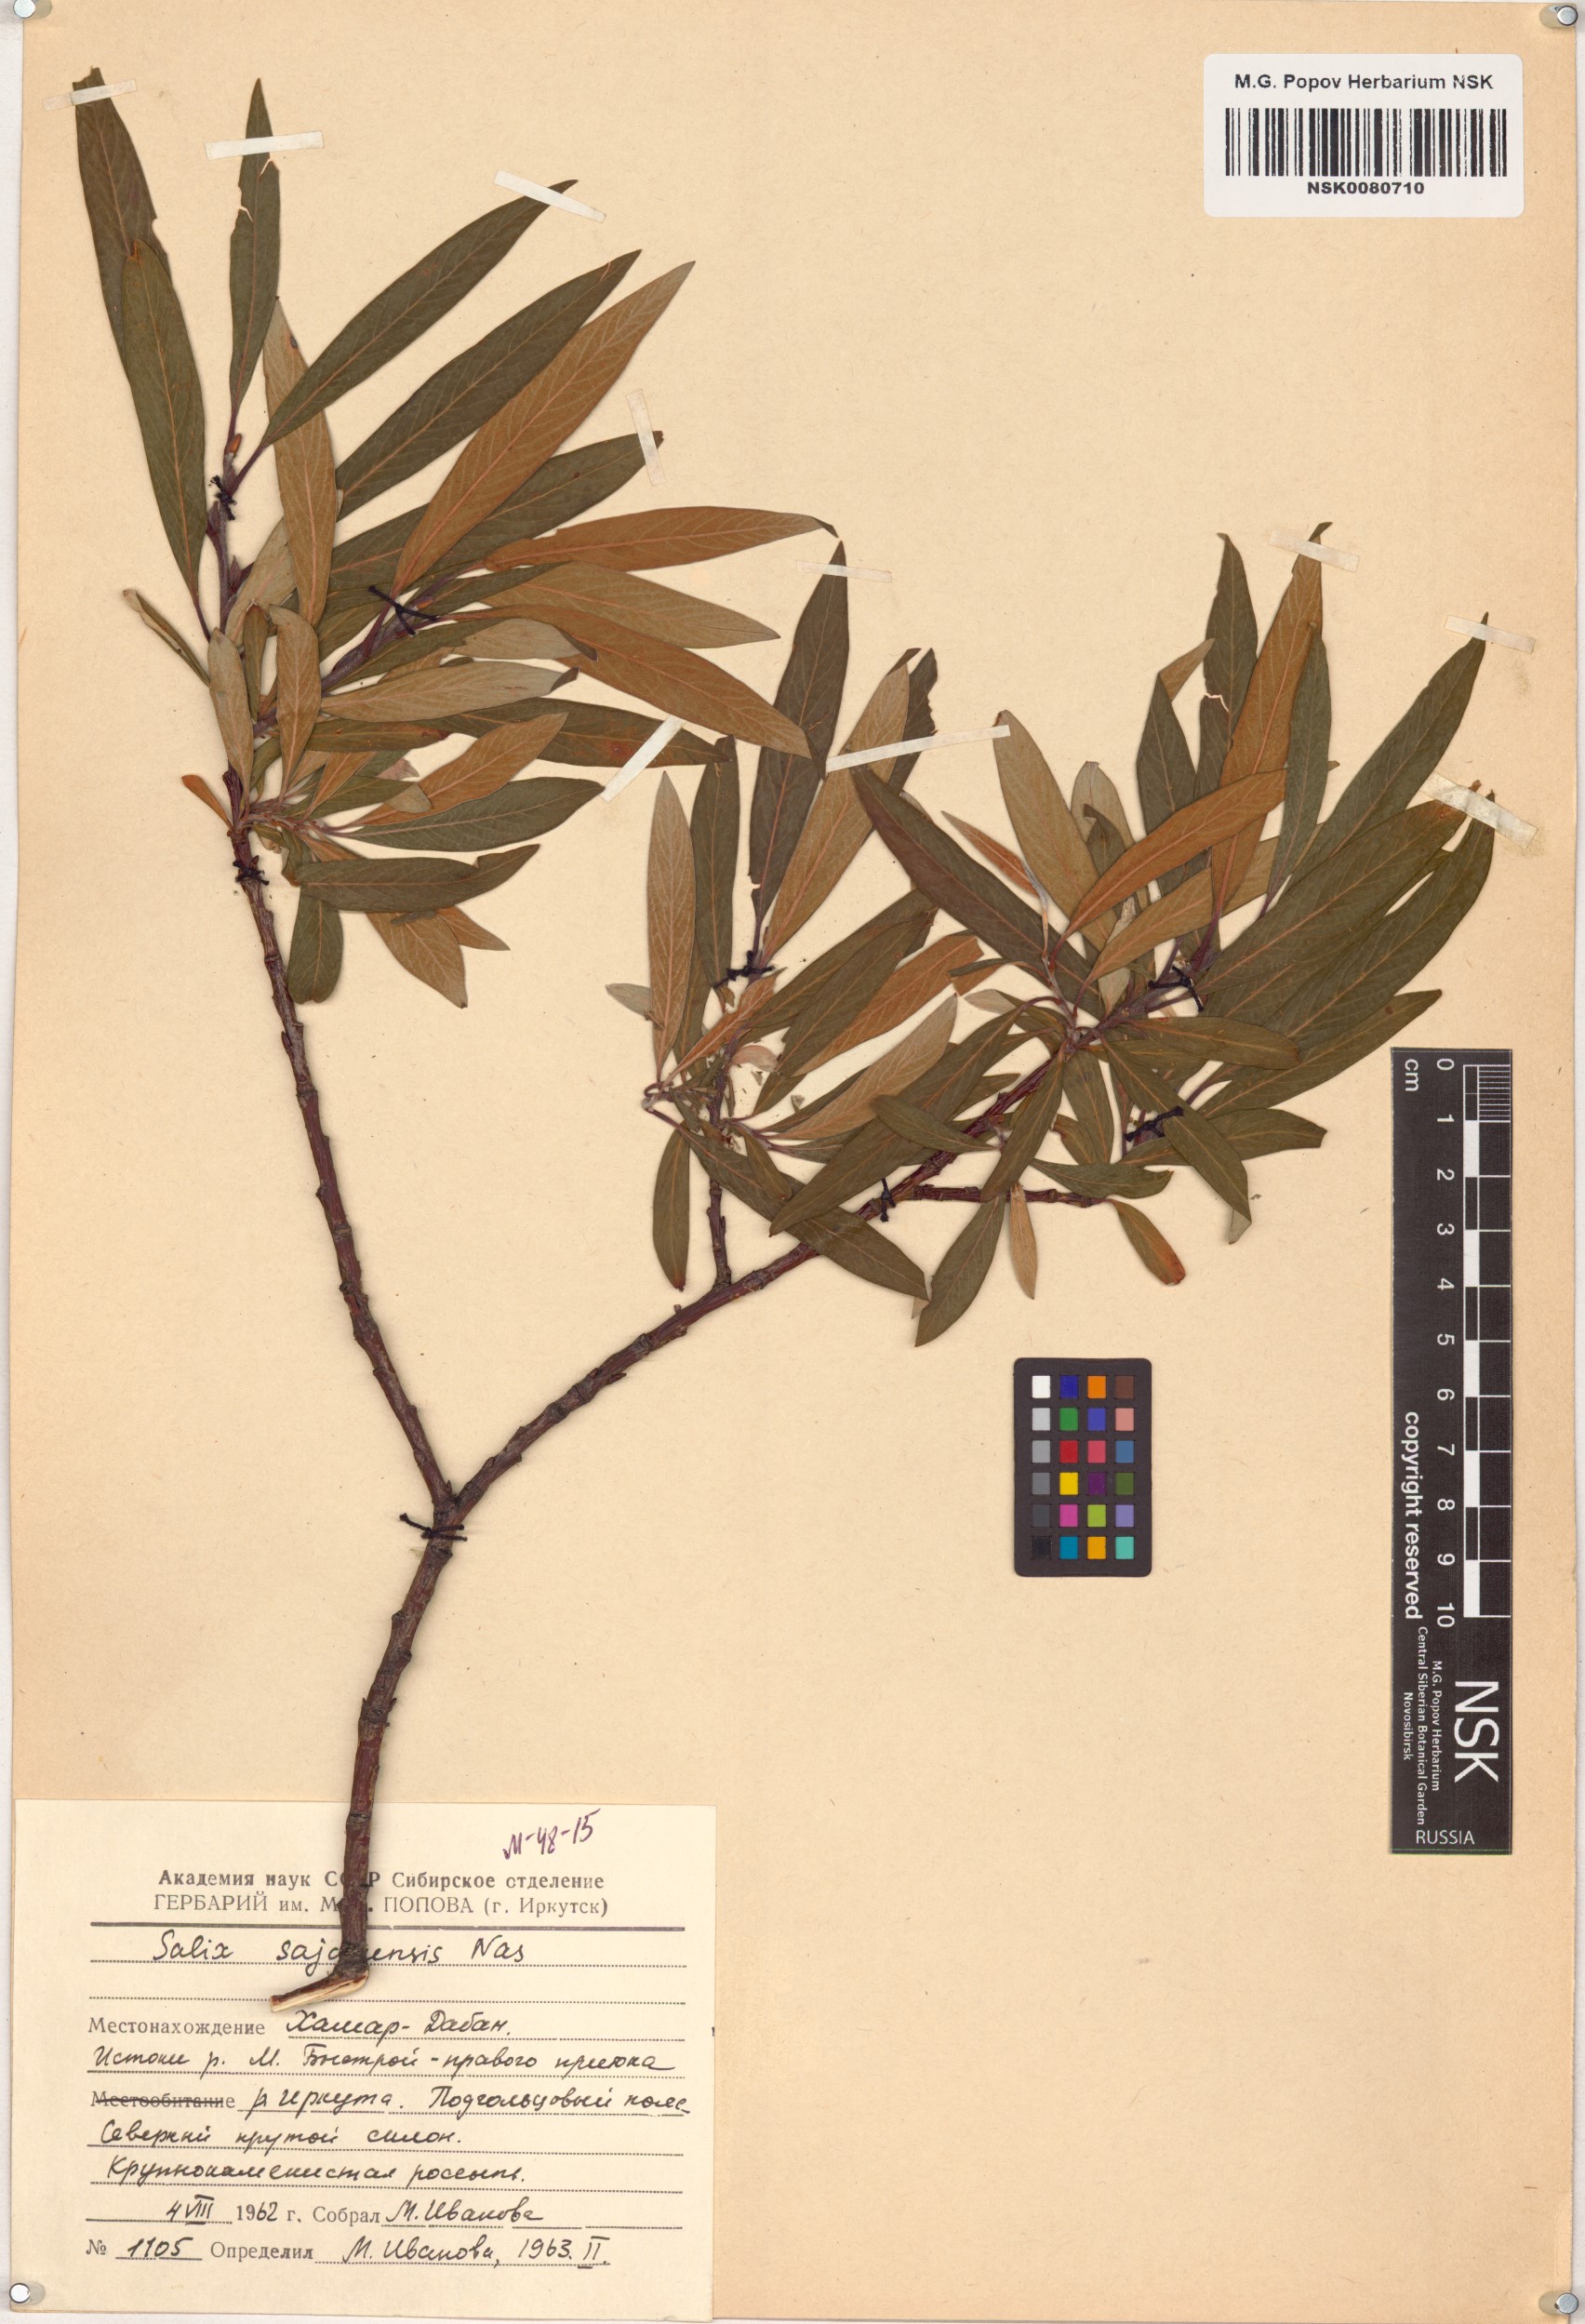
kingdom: Plantae
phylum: Tracheophyta
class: Magnoliopsida
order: Malpighiales
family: Salicaceae
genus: Salix
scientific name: Salix sajanensis
